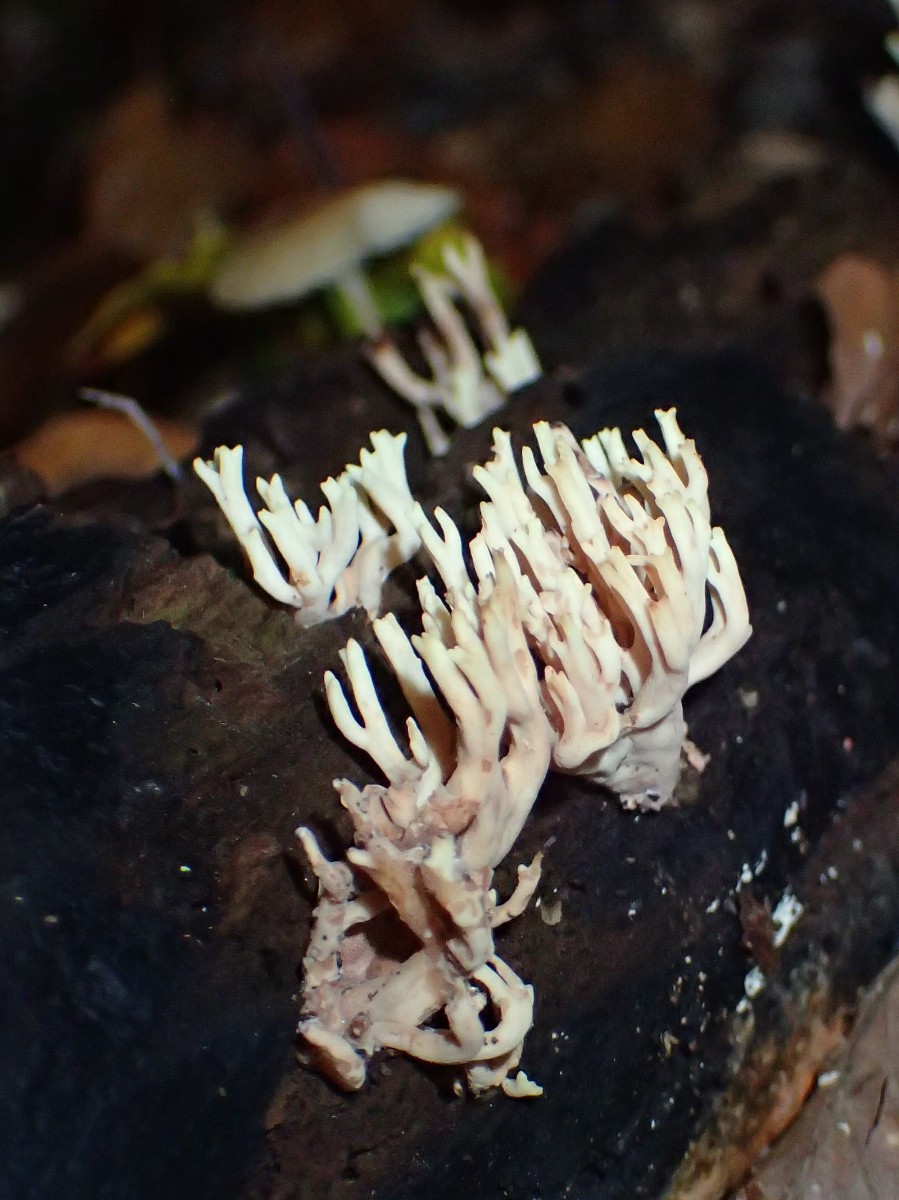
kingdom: Fungi
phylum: Basidiomycota
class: Agaricomycetes
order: Gomphales
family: Gomphaceae
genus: Ramaria
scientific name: Ramaria stricta
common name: rank koralsvamp
